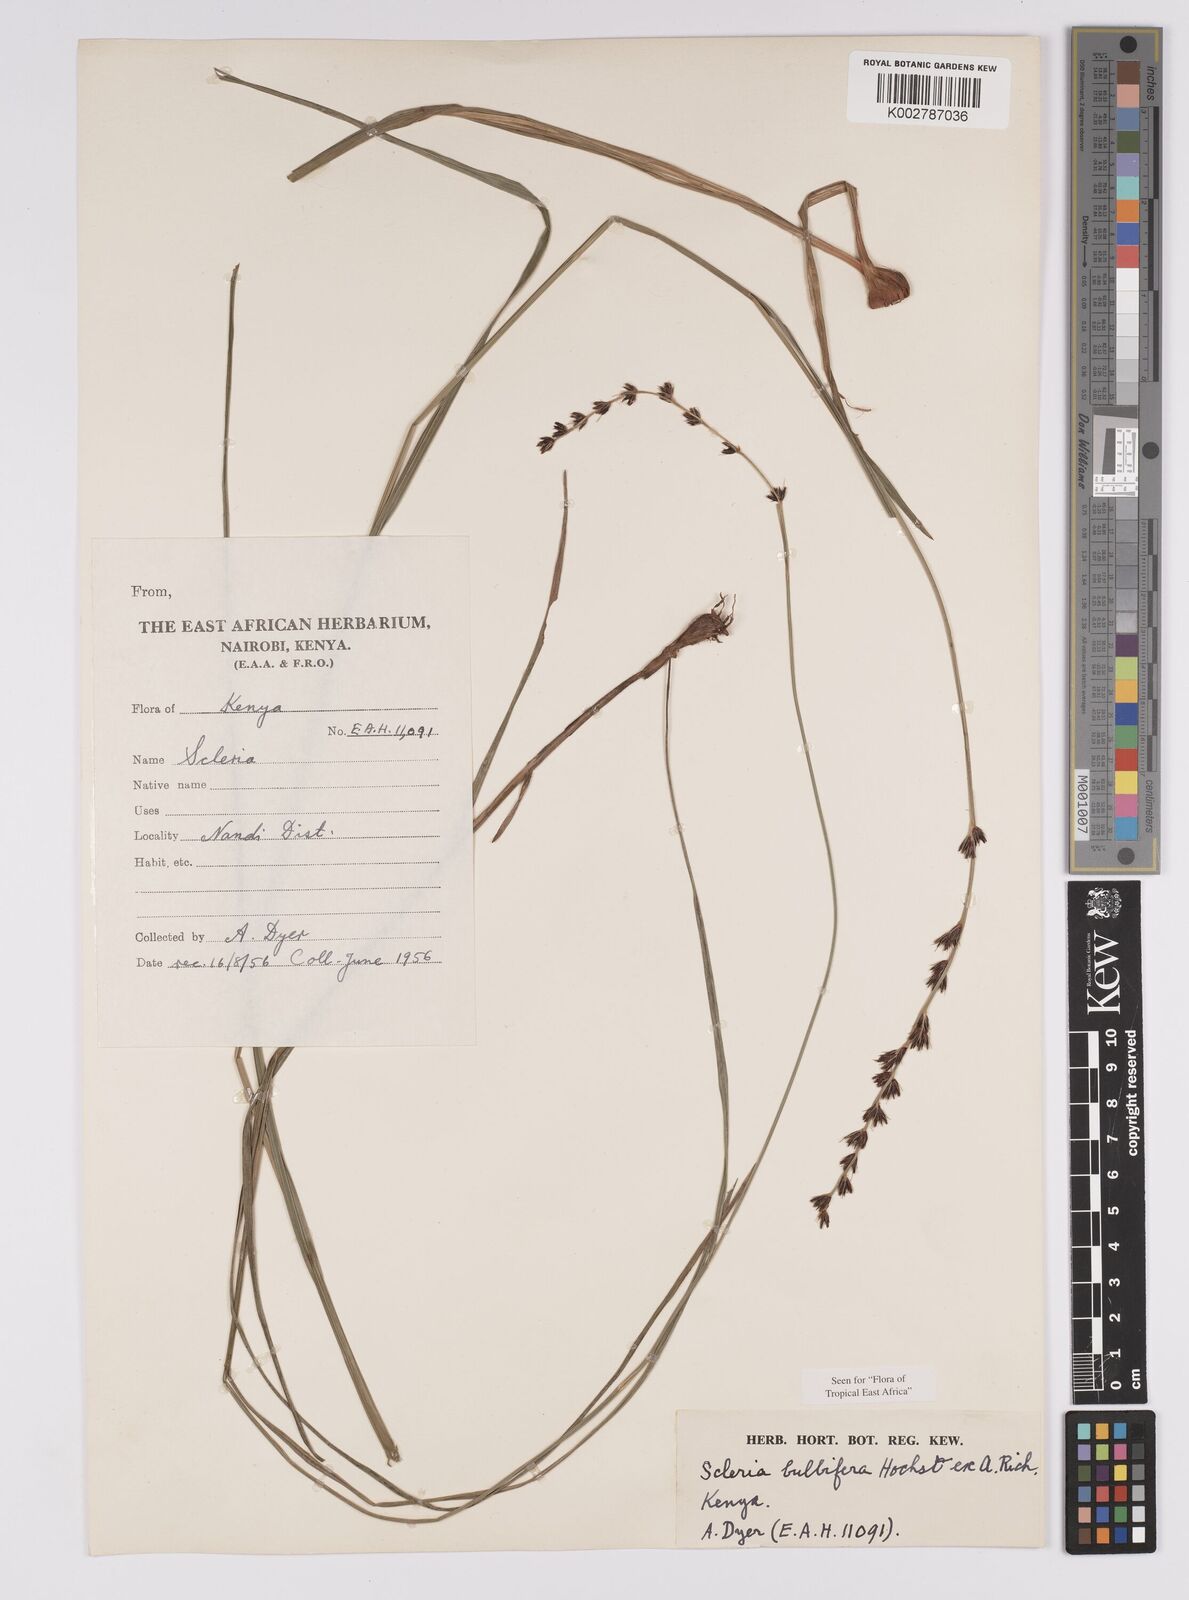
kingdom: Plantae
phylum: Tracheophyta
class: Liliopsida
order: Poales
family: Cyperaceae
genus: Scleria
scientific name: Scleria bulbifera
